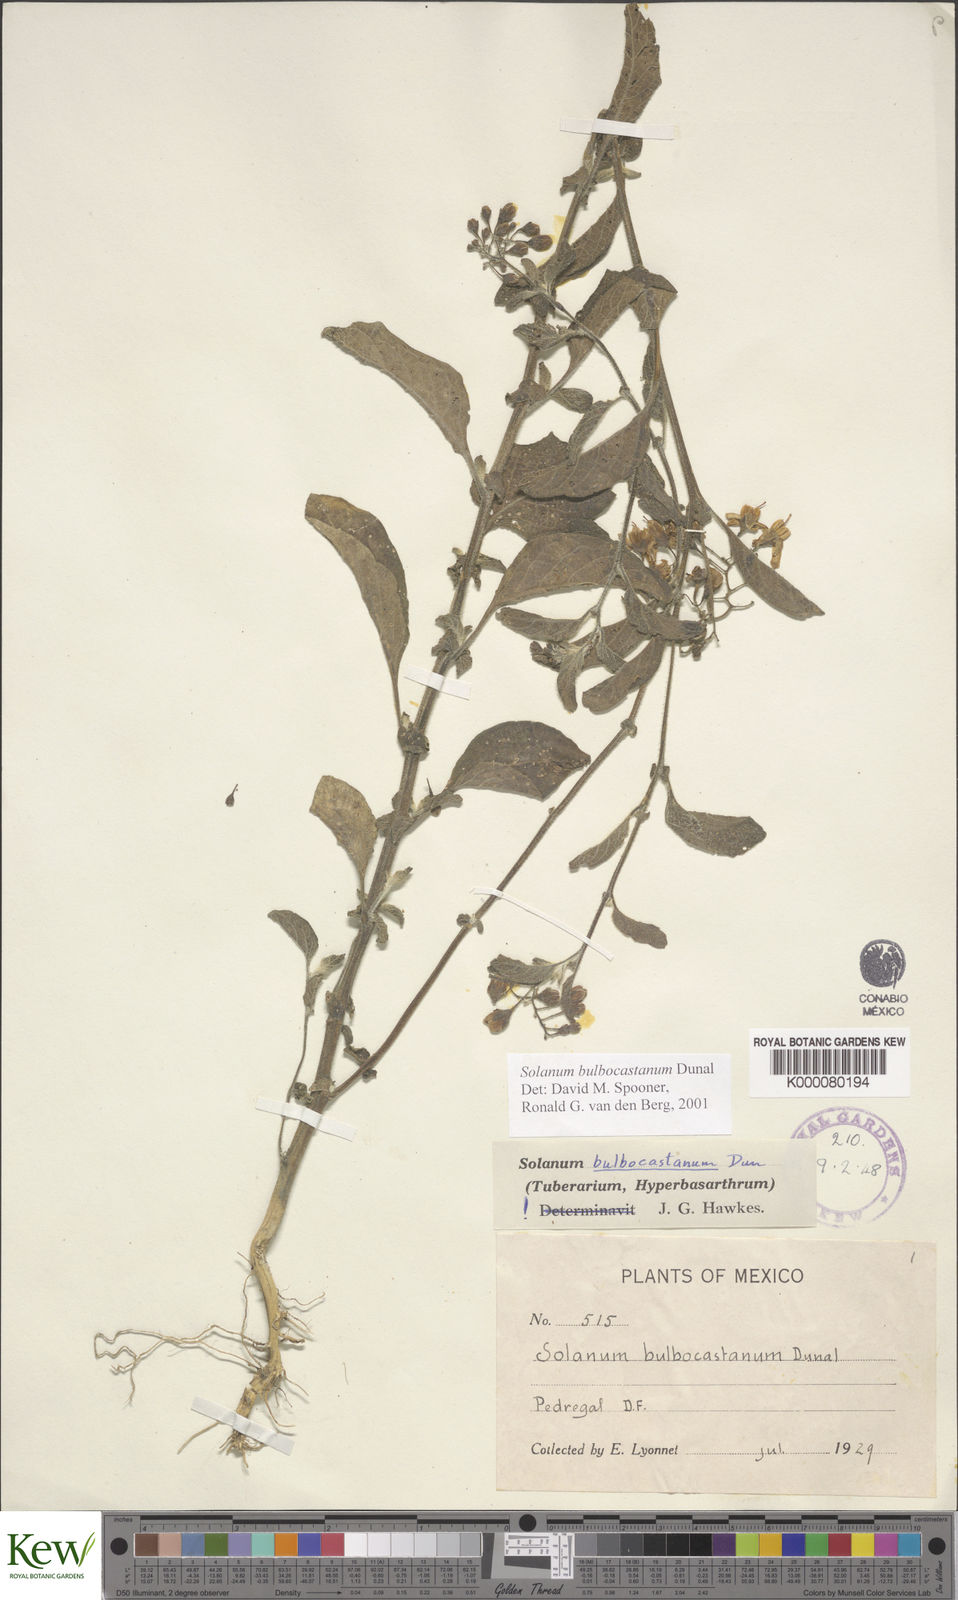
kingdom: Plantae
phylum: Tracheophyta
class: Magnoliopsida
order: Solanales
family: Solanaceae
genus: Solanum
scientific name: Solanum bulbocastanum
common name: Ornamental nightshade
